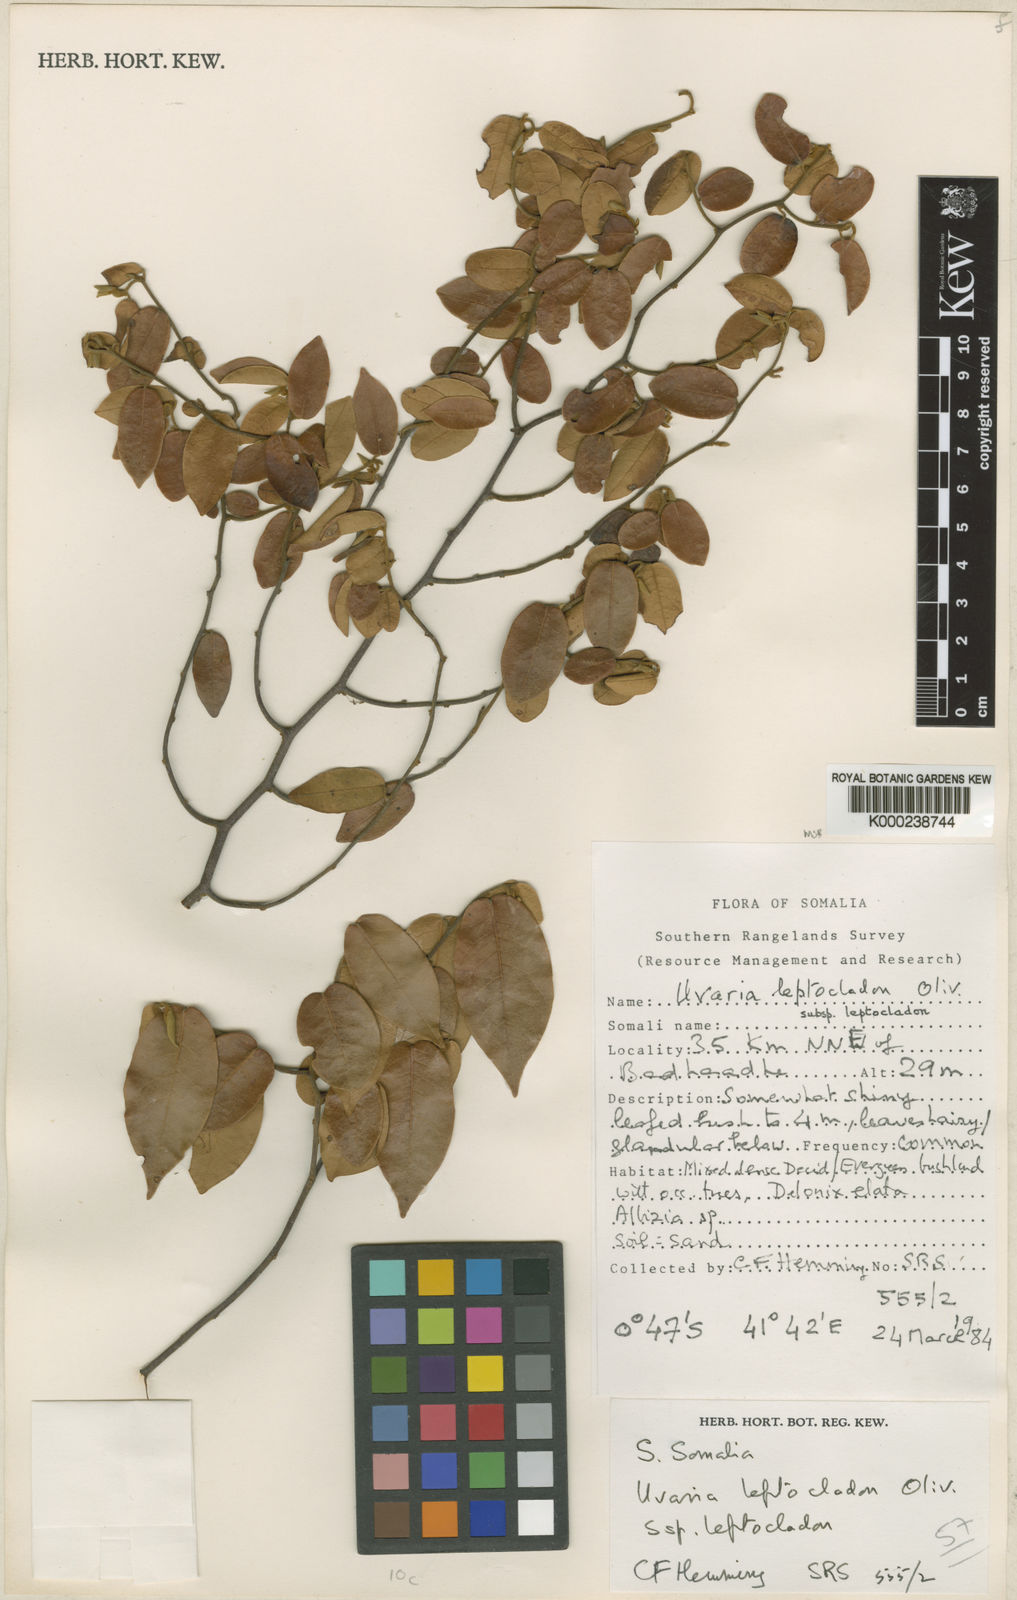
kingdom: Plantae
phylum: Tracheophyta
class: Magnoliopsida
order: Magnoliales
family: Annonaceae
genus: Uvaria
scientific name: Uvaria leptocladon
